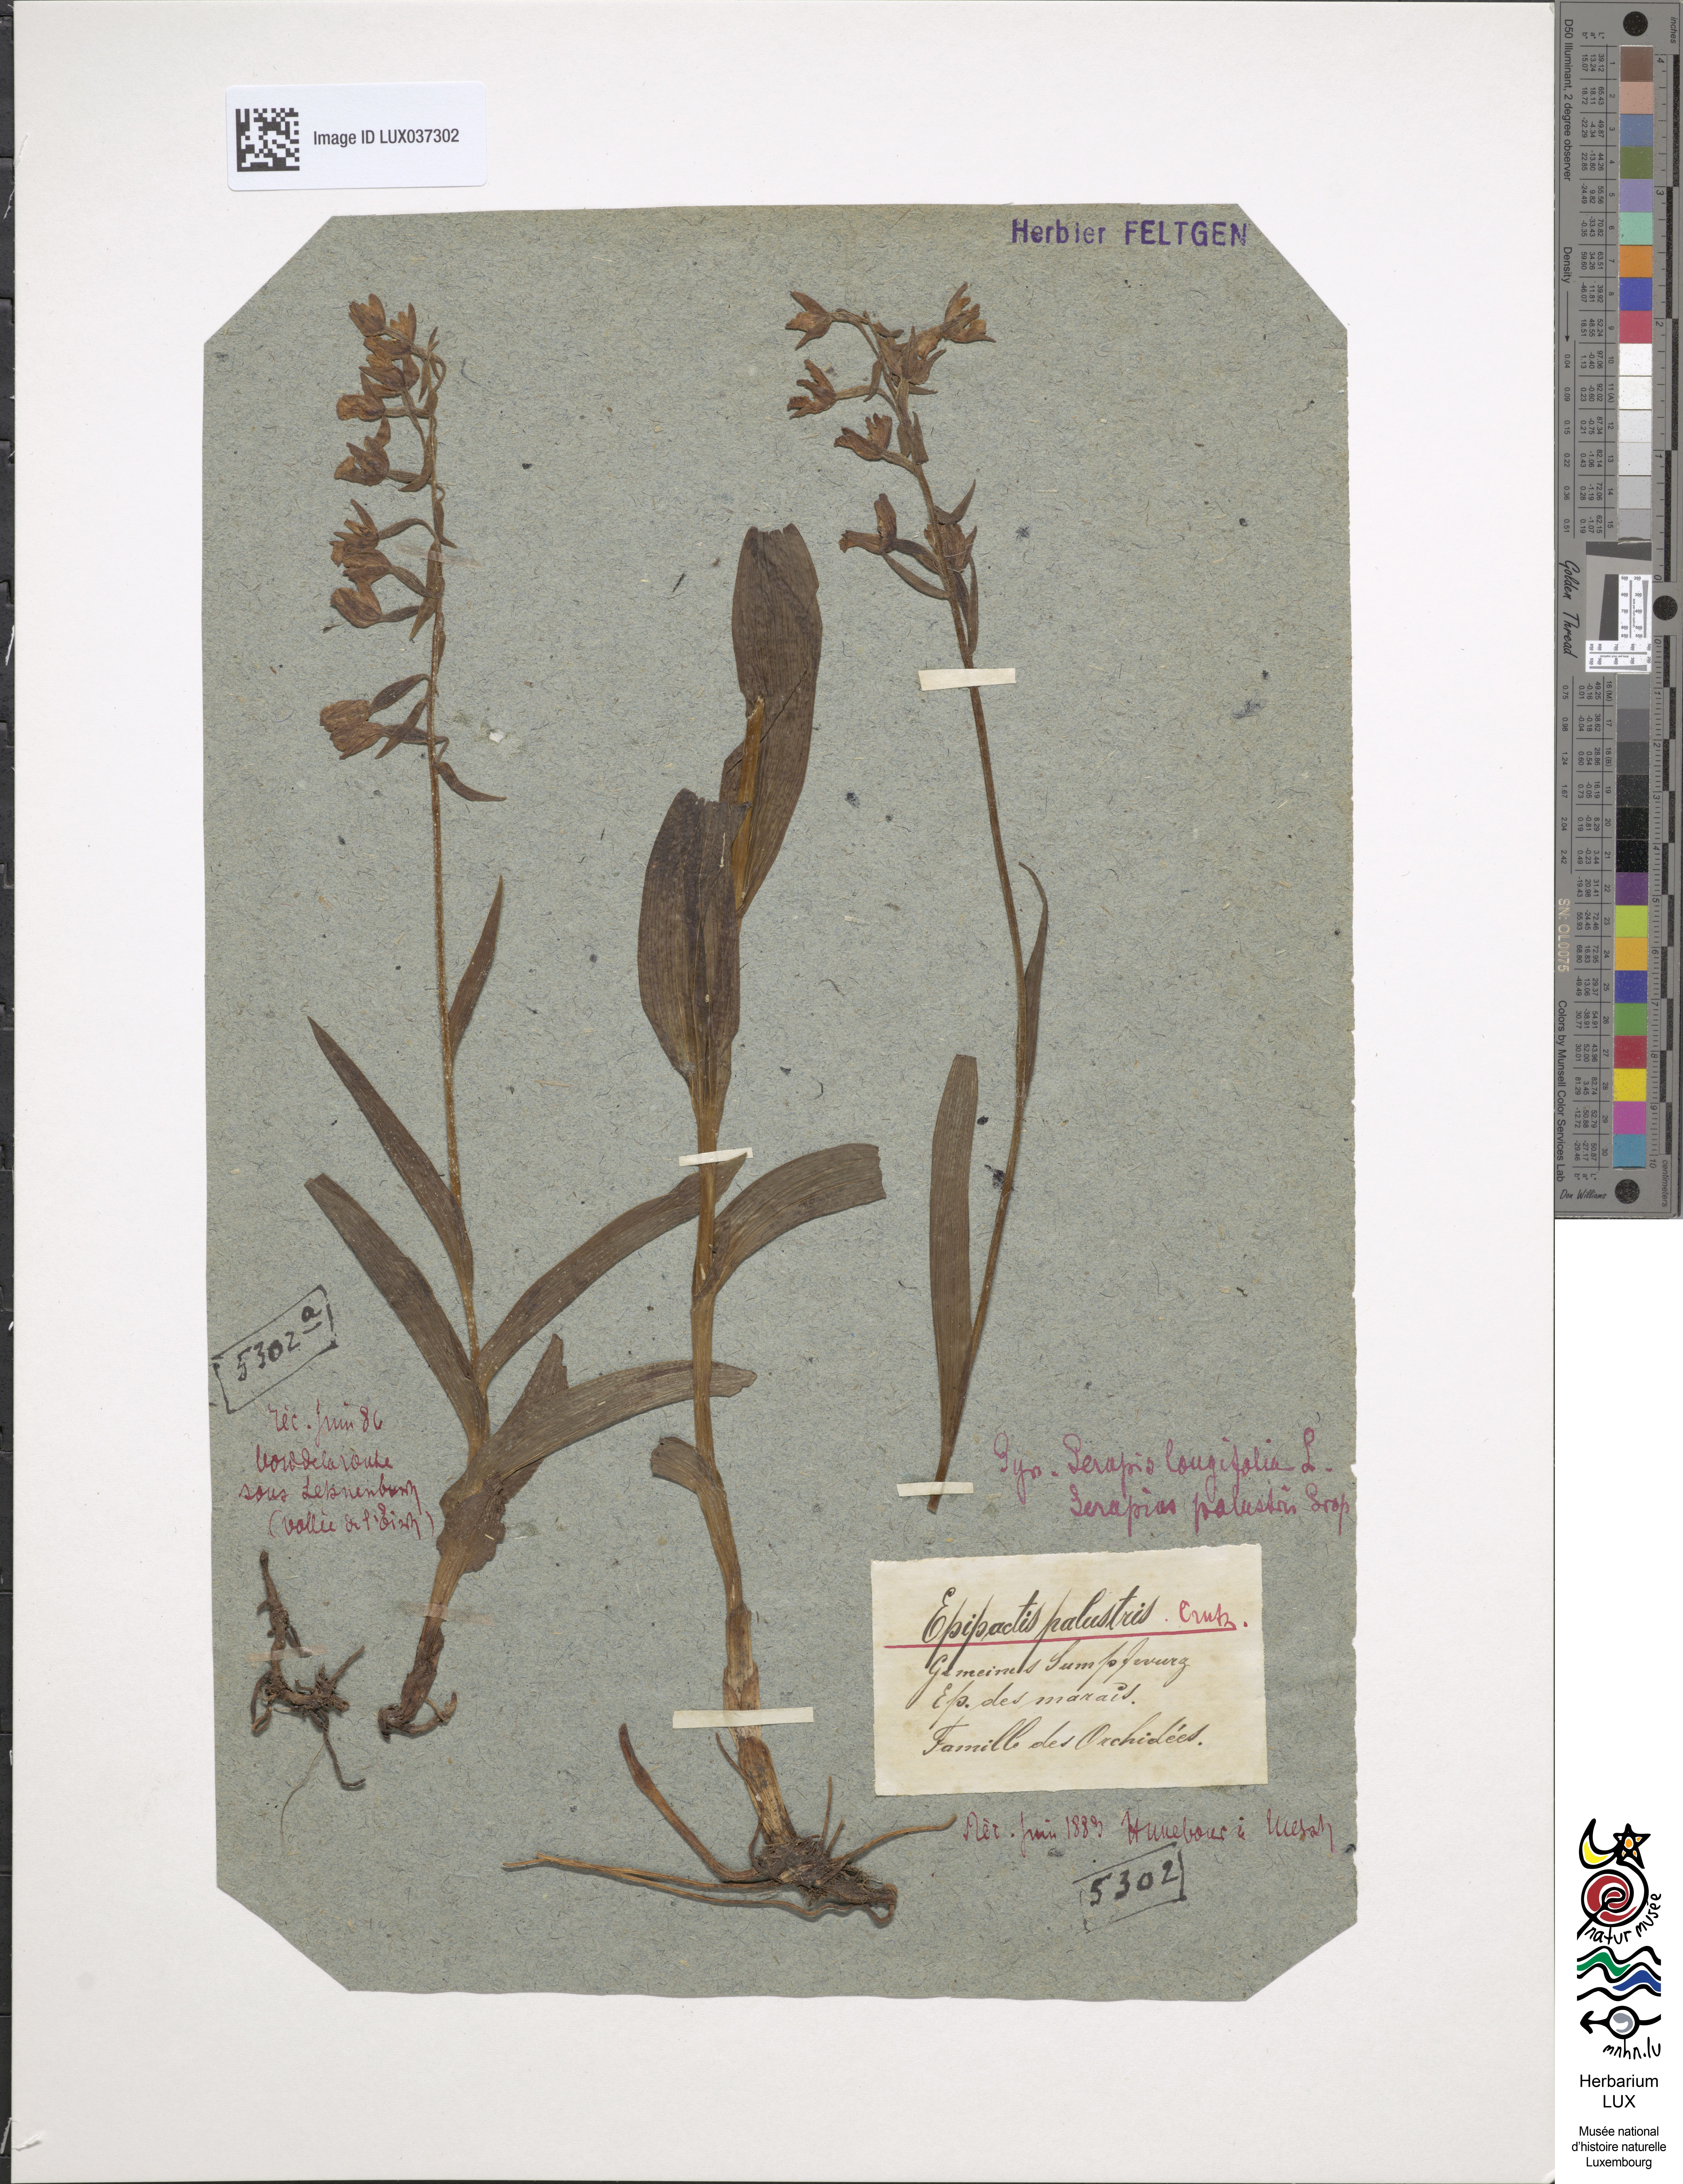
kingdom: Plantae
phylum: Tracheophyta
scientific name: Tracheophyta
